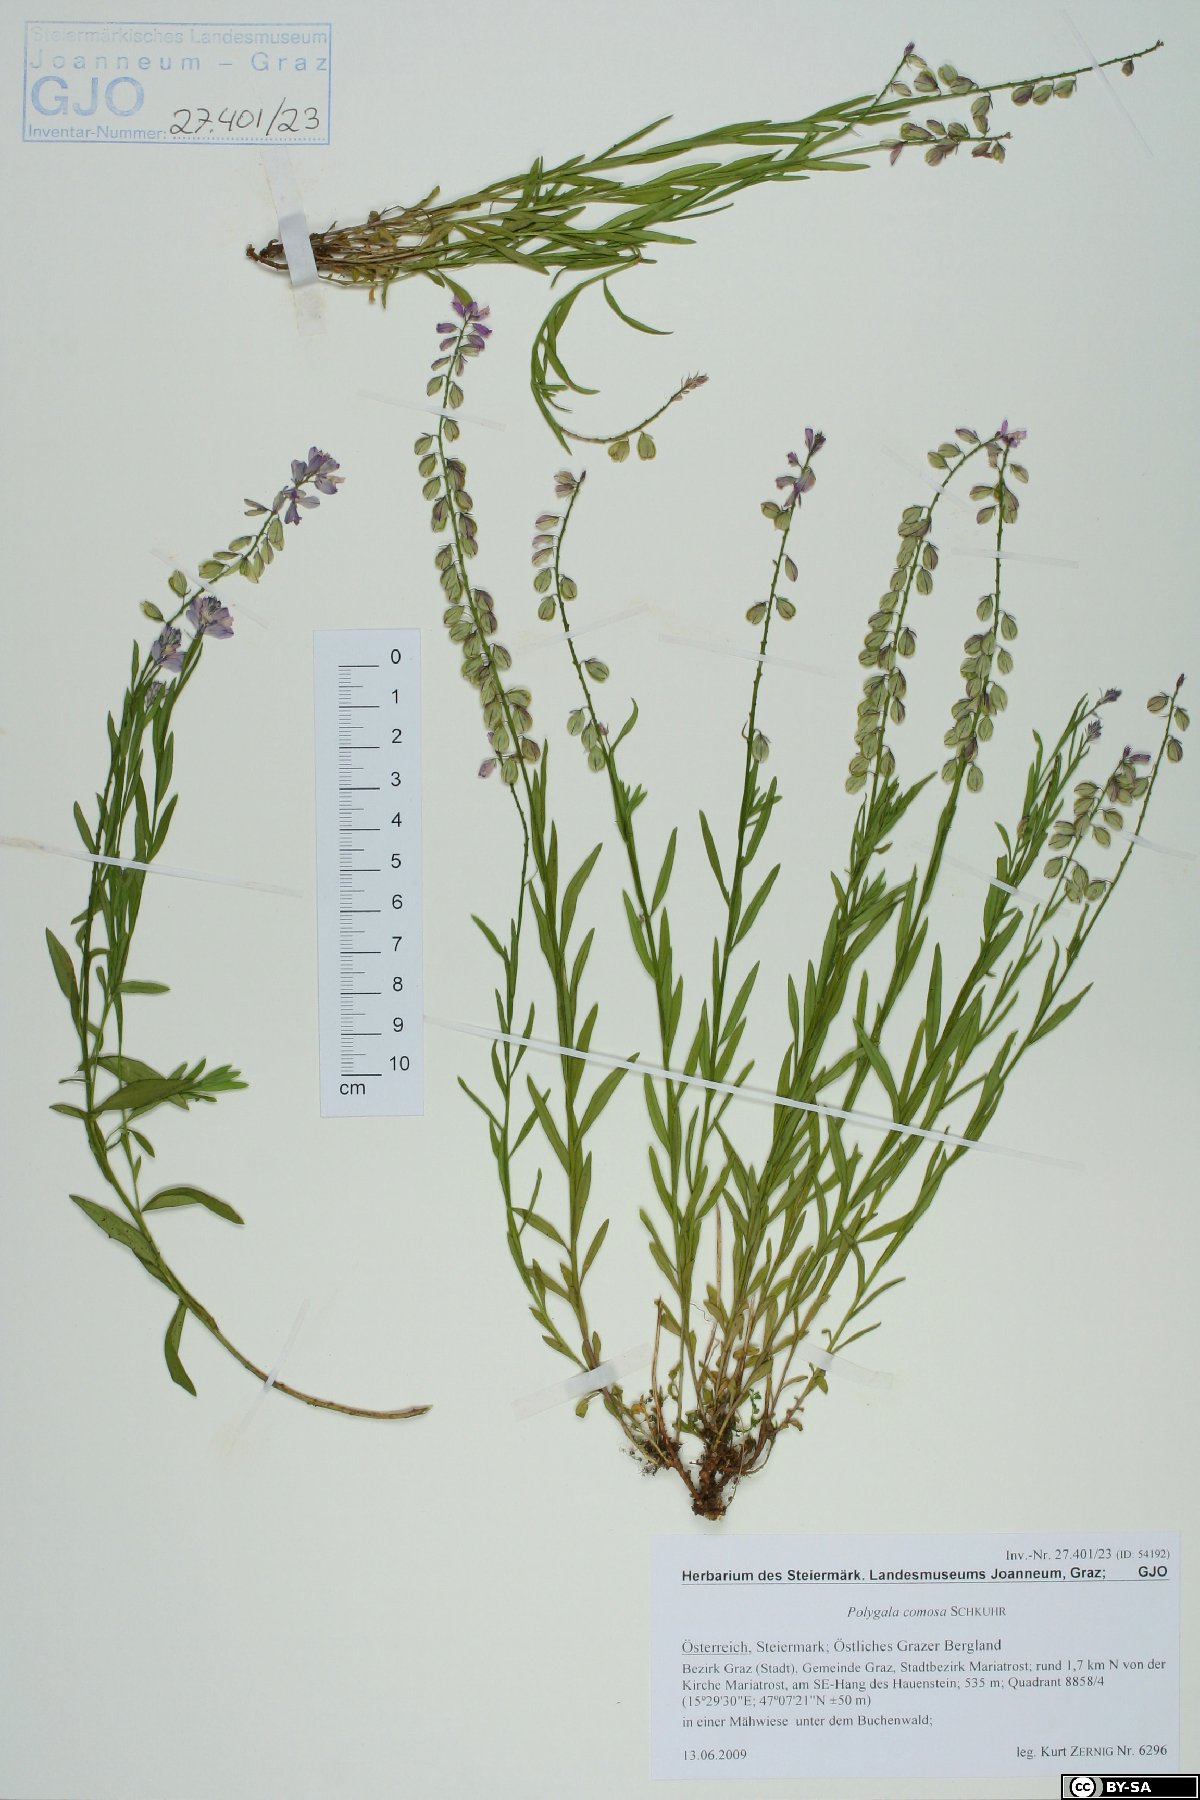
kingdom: Plantae
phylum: Tracheophyta
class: Magnoliopsida
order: Fabales
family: Polygalaceae
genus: Polygala
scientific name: Polygala comosa
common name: Tufted milkwort
